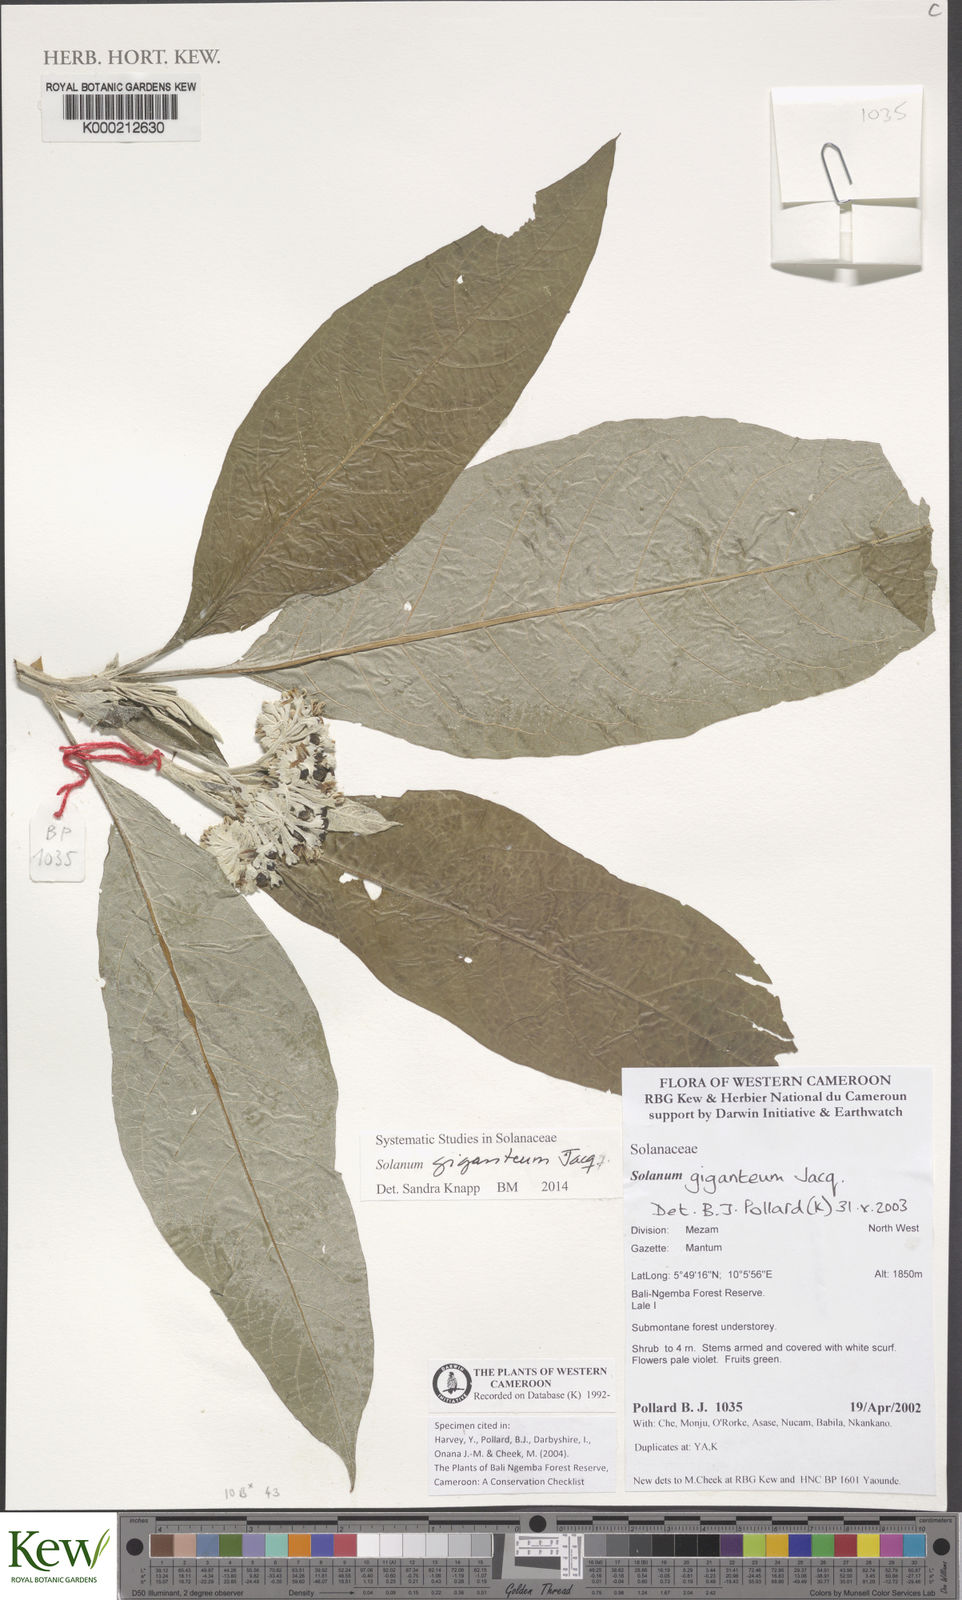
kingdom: Plantae
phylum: Tracheophyta
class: Magnoliopsida
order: Solanales
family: Solanaceae
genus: Solanum
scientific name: Solanum giganteum
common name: Healing-leaf-tree
